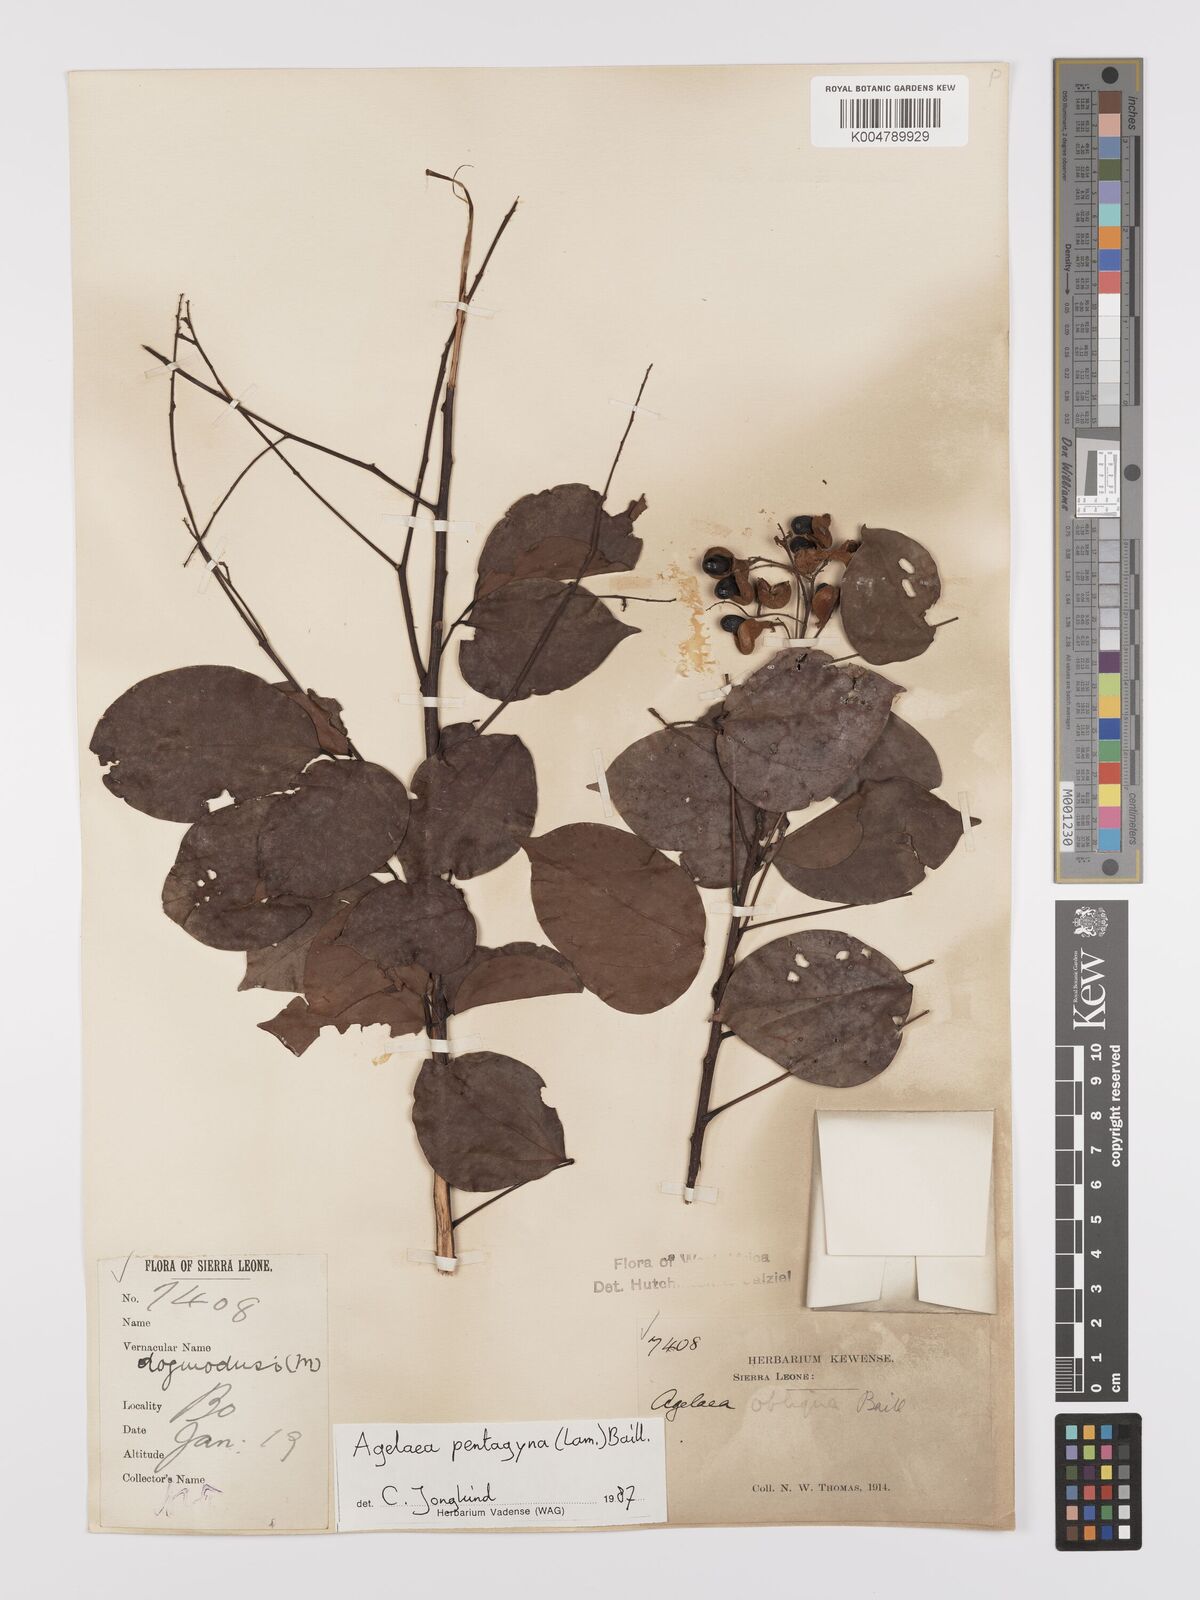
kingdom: Plantae
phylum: Tracheophyta
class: Magnoliopsida
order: Oxalidales
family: Connaraceae
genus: Agelaea
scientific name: Agelaea pentagyna
